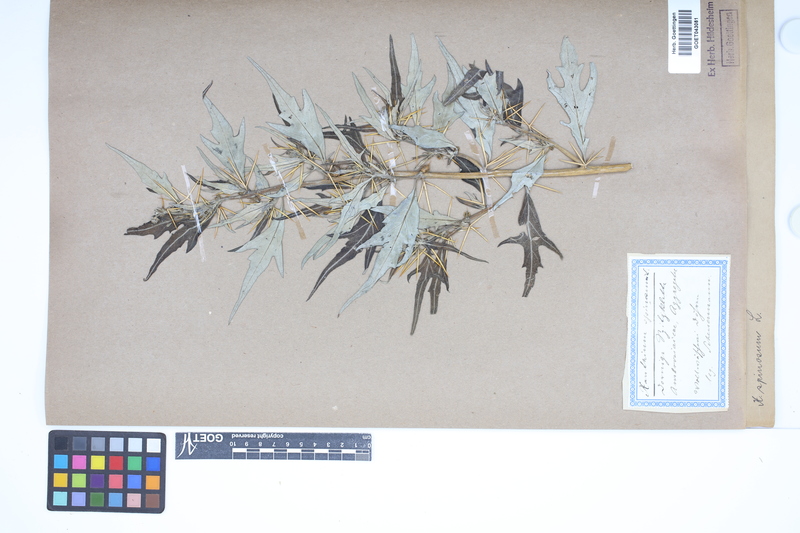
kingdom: Plantae
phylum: Tracheophyta
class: Magnoliopsida
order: Asterales
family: Asteraceae
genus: Xanthium
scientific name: Xanthium spinosum
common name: Spiny cocklebur
